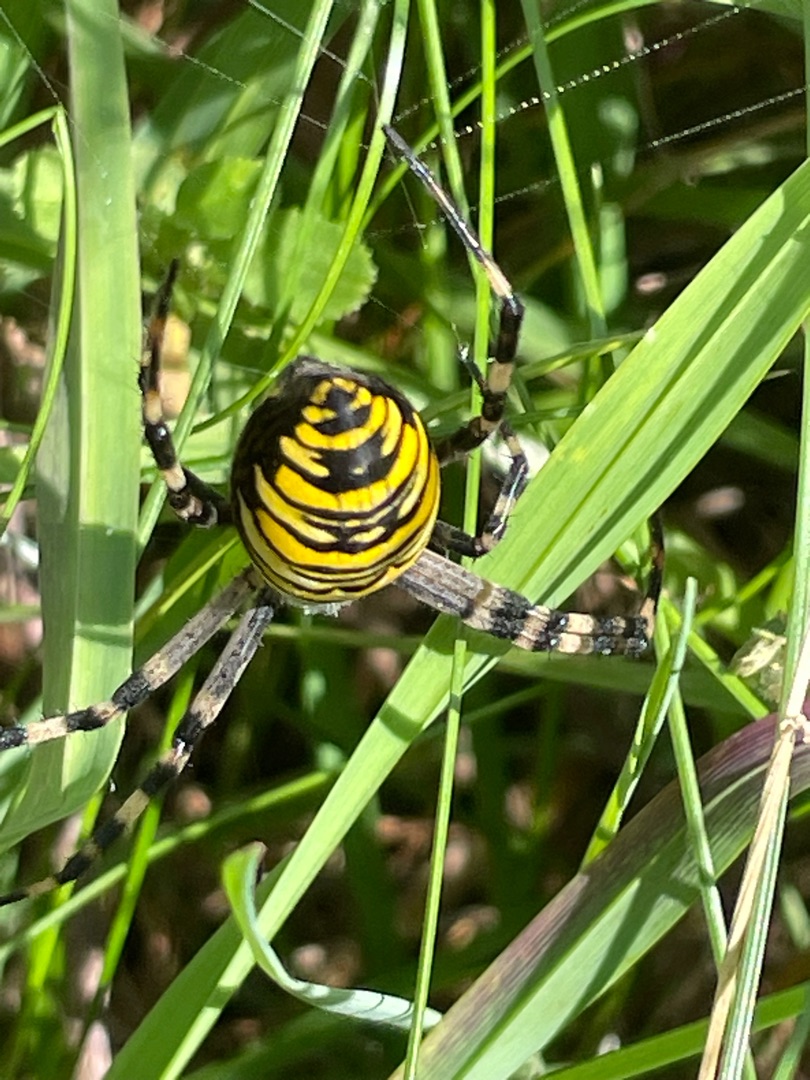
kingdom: Animalia
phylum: Arthropoda
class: Arachnida
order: Araneae
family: Araneidae
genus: Argiope
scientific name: Argiope bruennichi
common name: Hvepseedderkop
